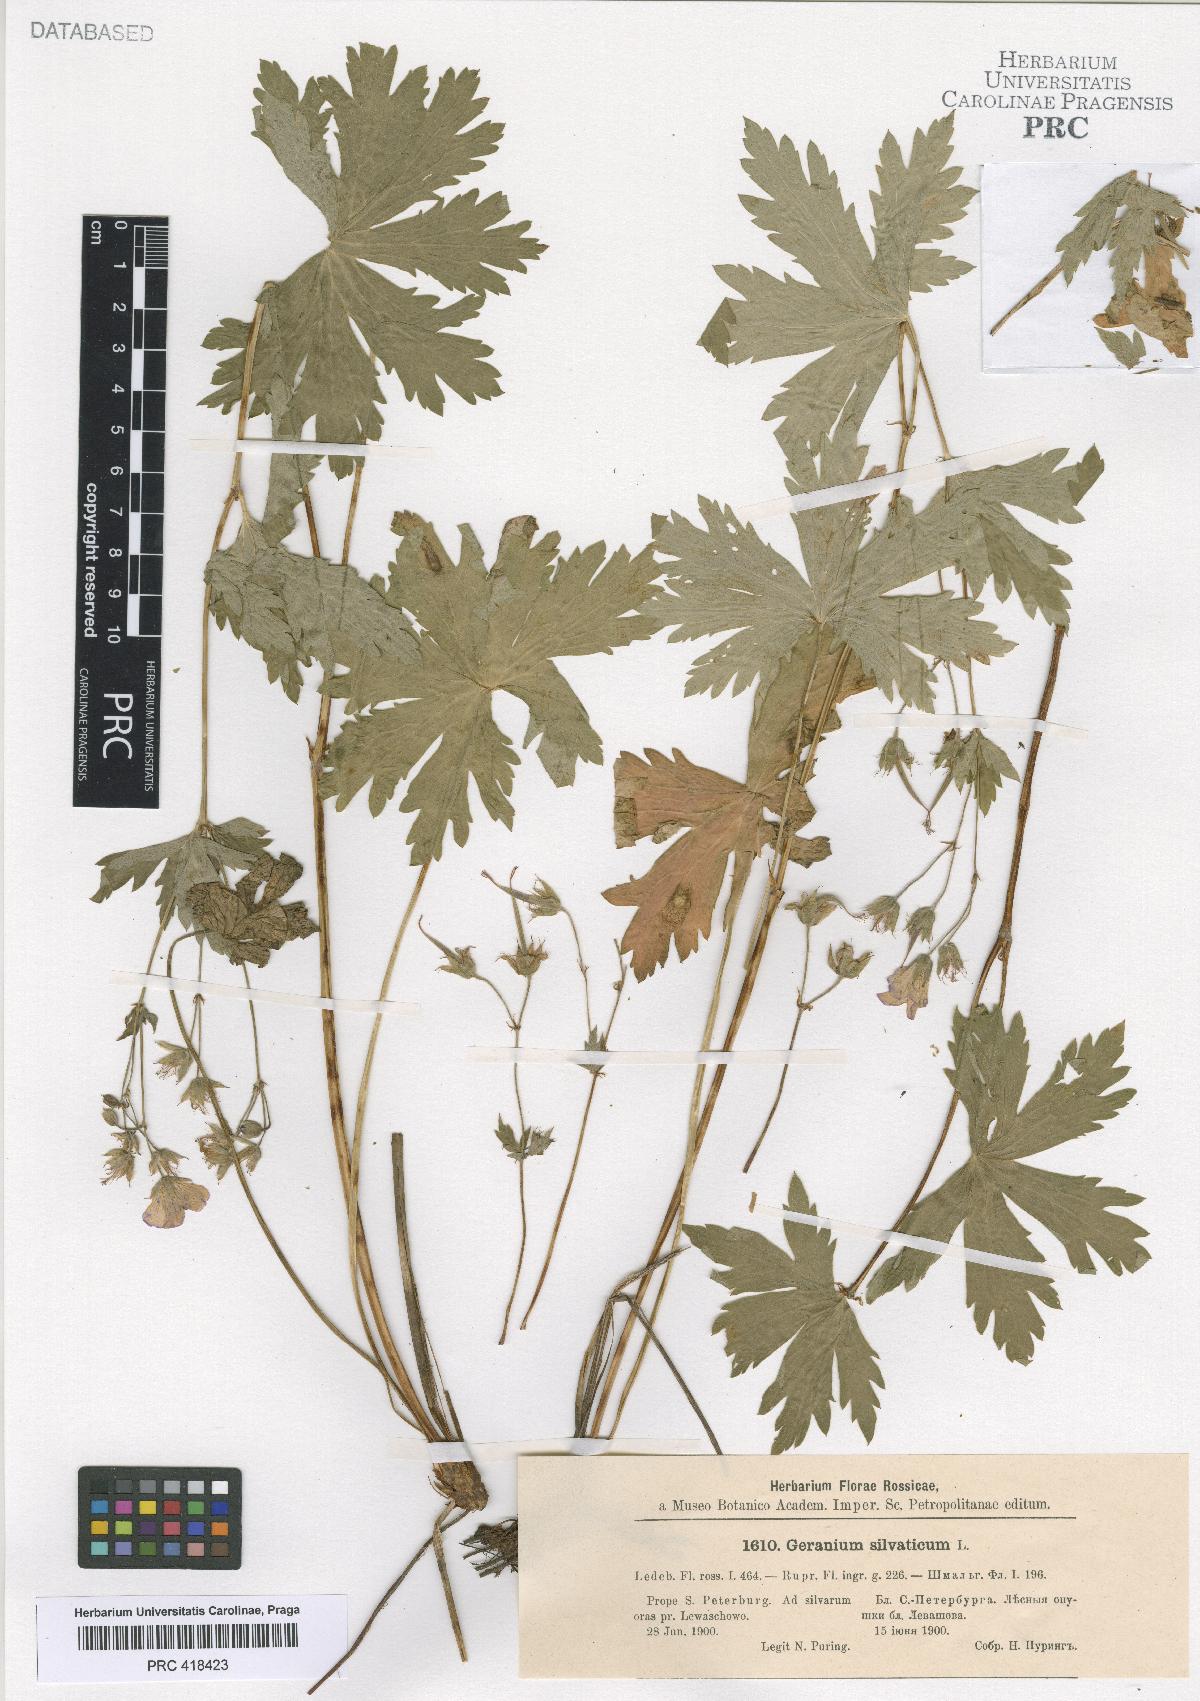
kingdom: Plantae
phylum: Tracheophyta
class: Magnoliopsida
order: Geraniales
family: Geraniaceae
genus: Geranium
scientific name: Geranium sylvaticum
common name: Wood crane's-bill
